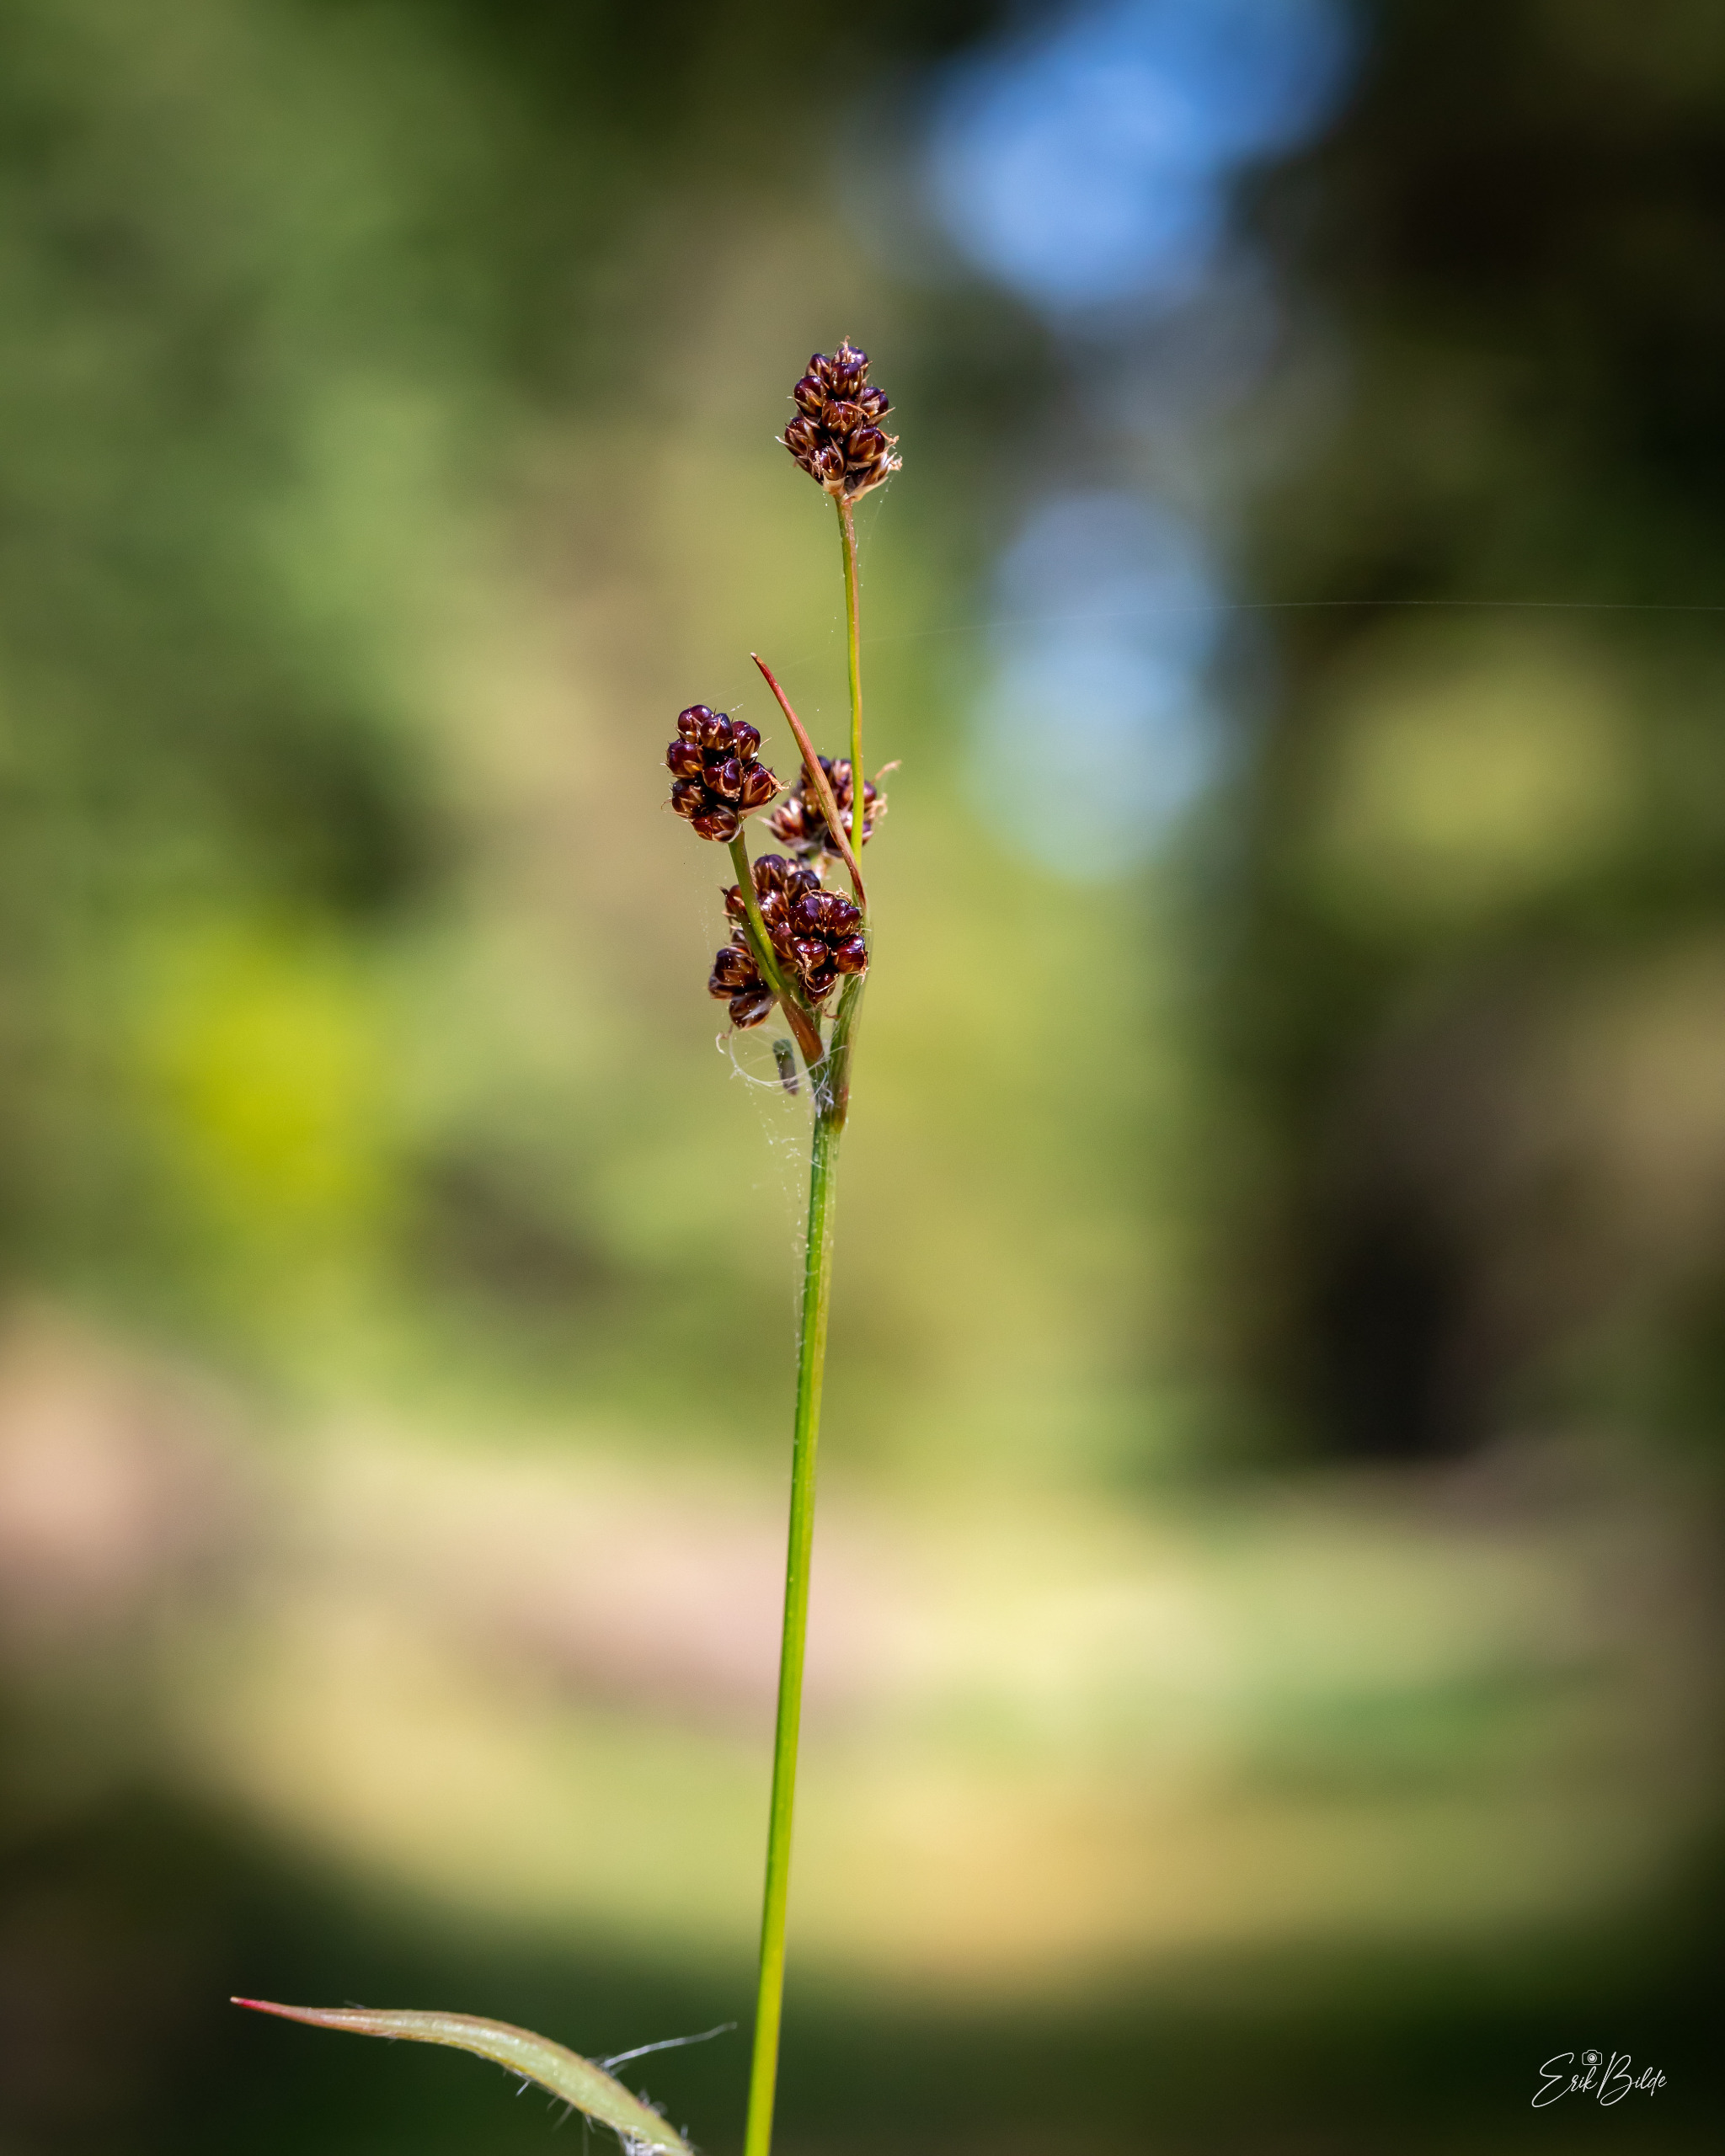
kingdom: Plantae
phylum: Tracheophyta
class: Liliopsida
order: Poales
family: Juncaceae
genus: Luzula
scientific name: Luzula multiflora
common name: Mangeblomstret frytle
